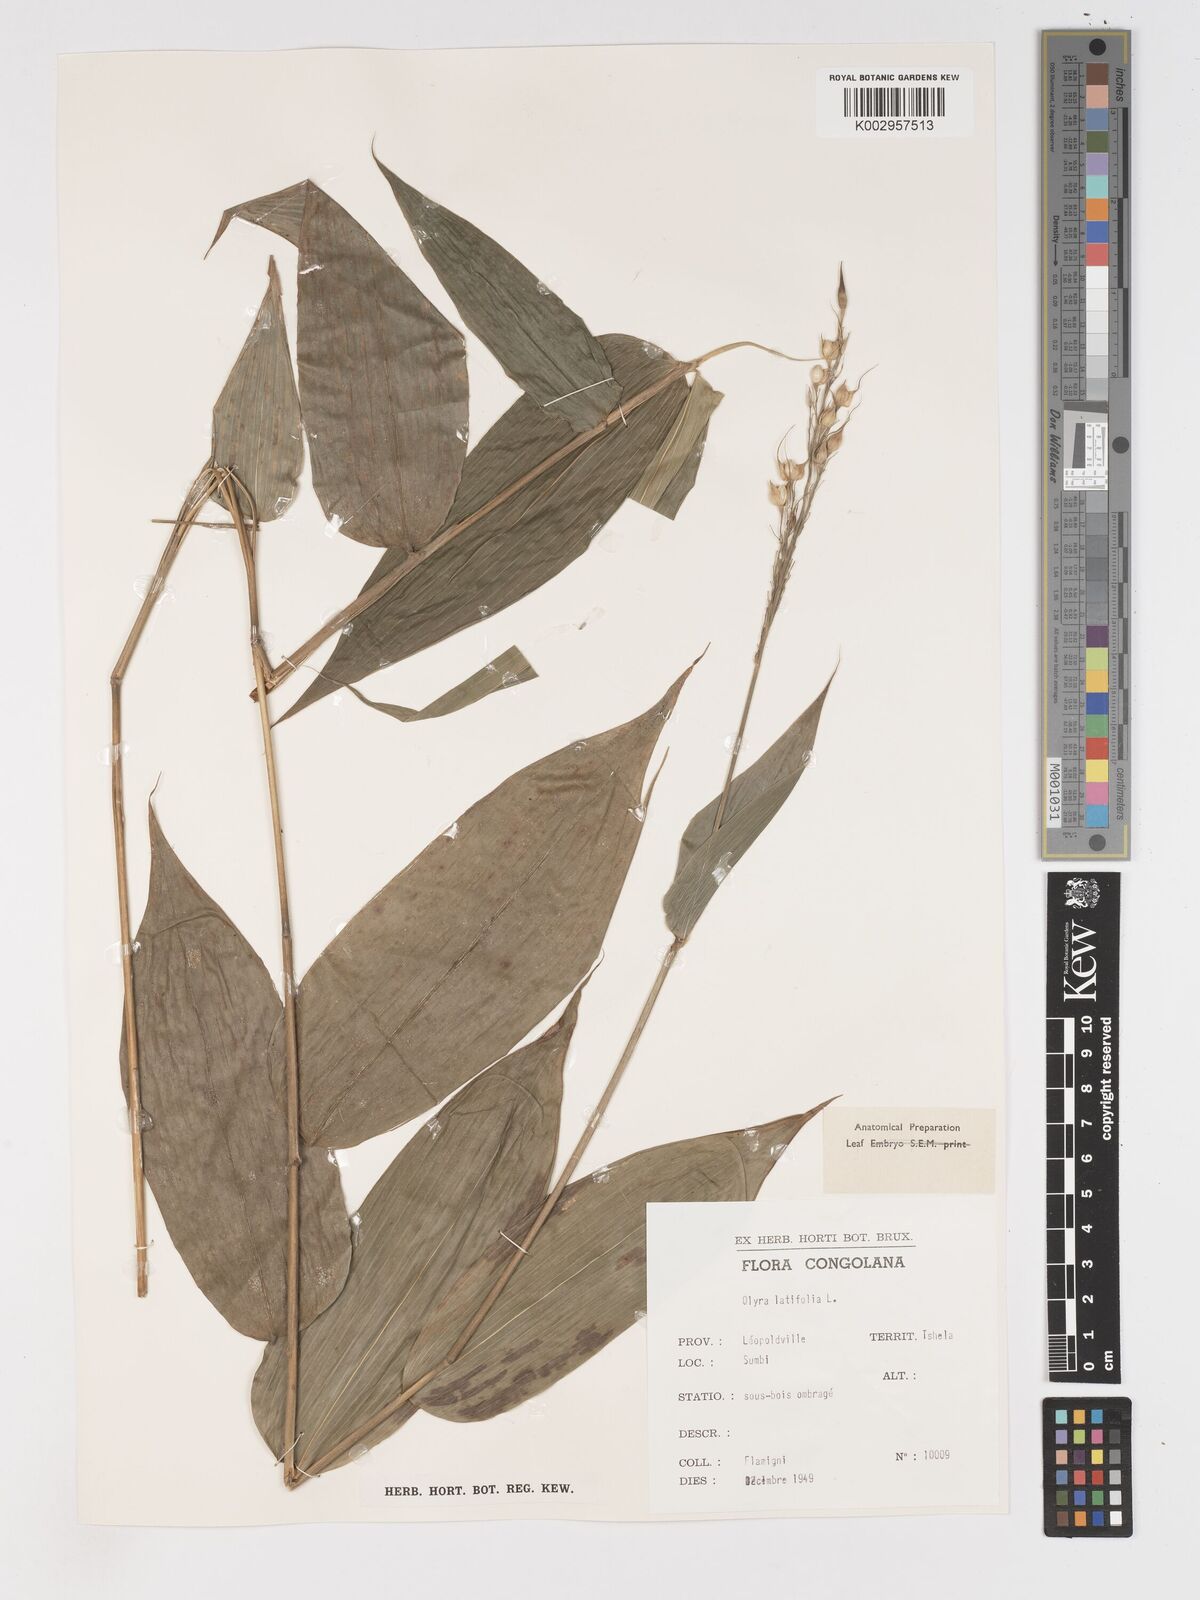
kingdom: Plantae
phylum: Tracheophyta
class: Liliopsida
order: Poales
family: Poaceae
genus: Olyra
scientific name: Olyra latifolia
